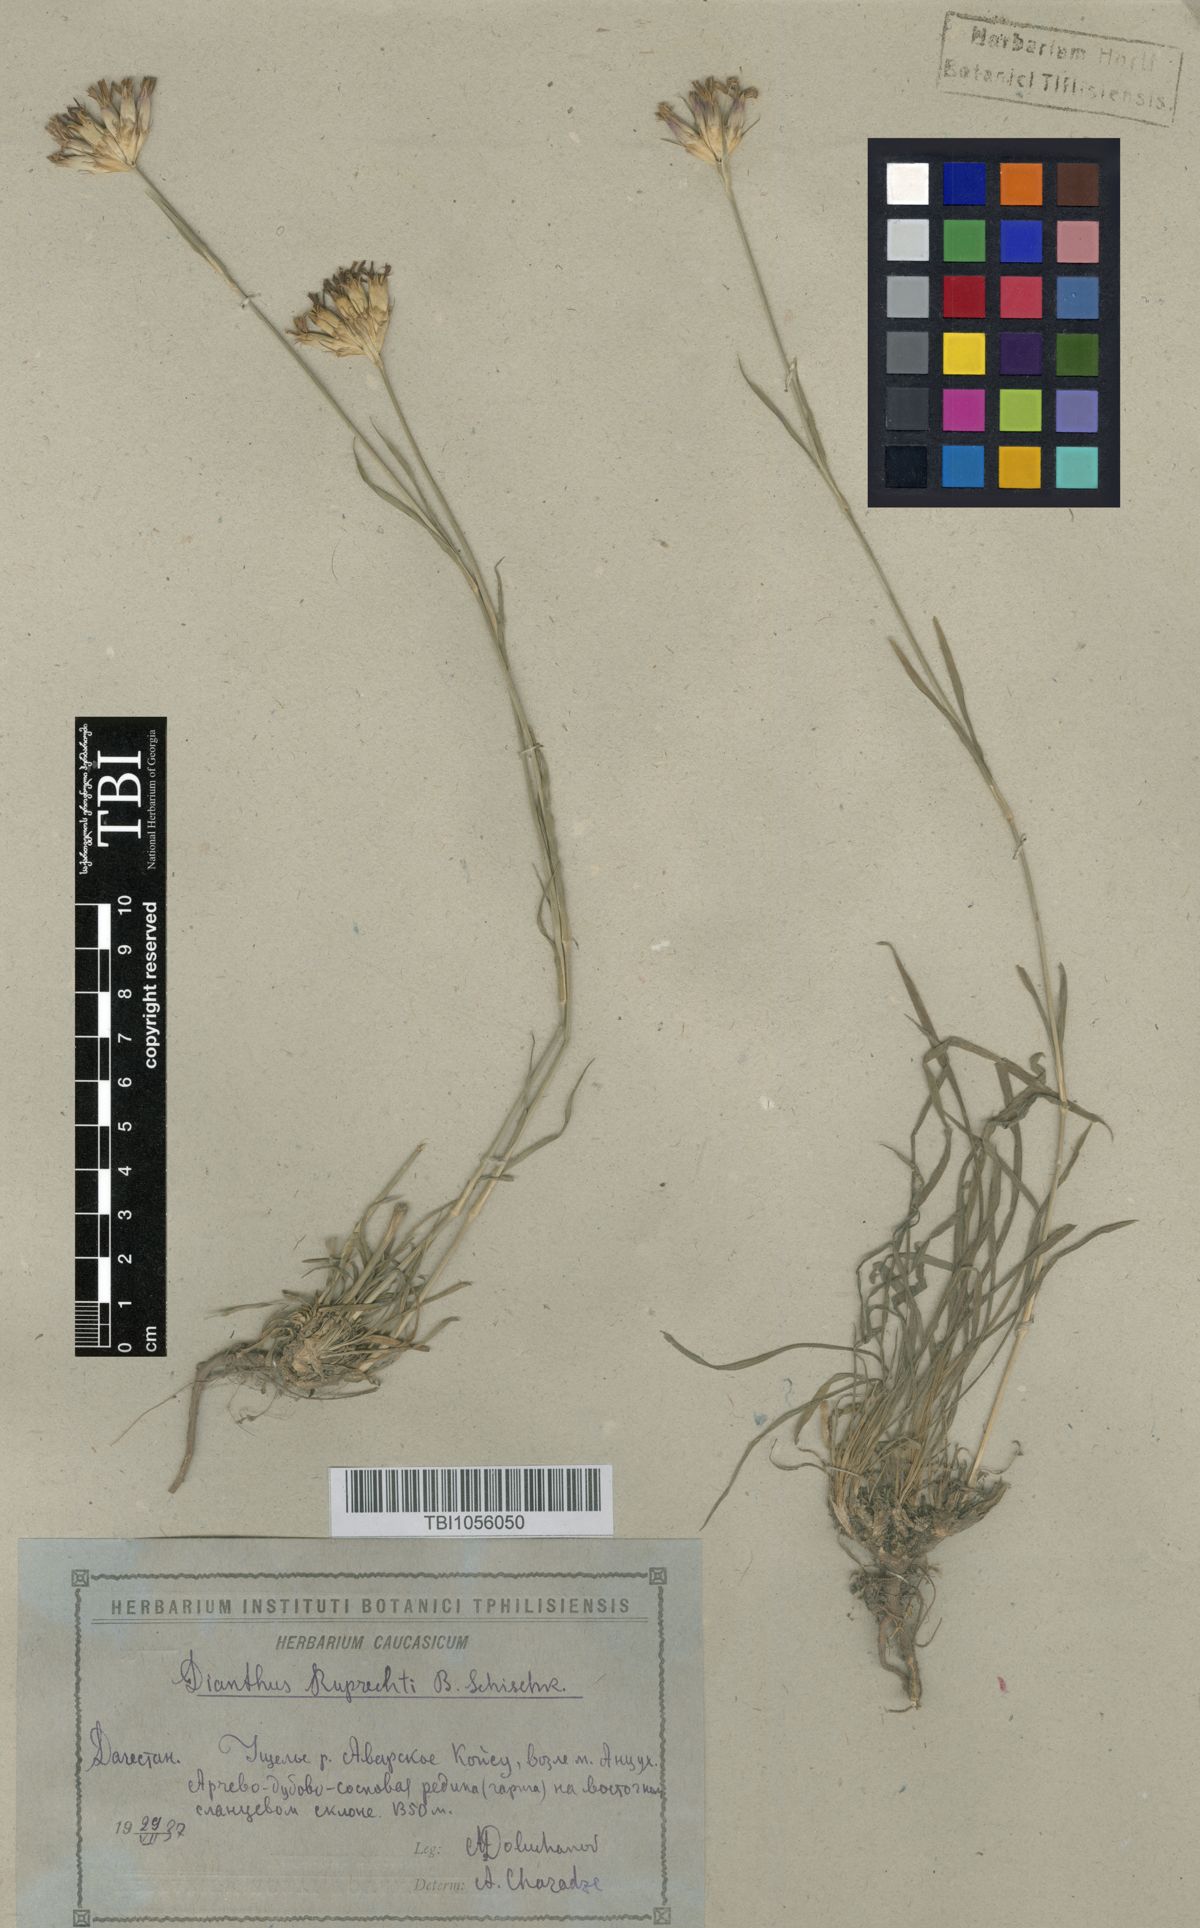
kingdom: Plantae
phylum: Tracheophyta
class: Magnoliopsida
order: Caryophyllales
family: Caryophyllaceae
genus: Dianthus
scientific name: Dianthus ruprechtii
